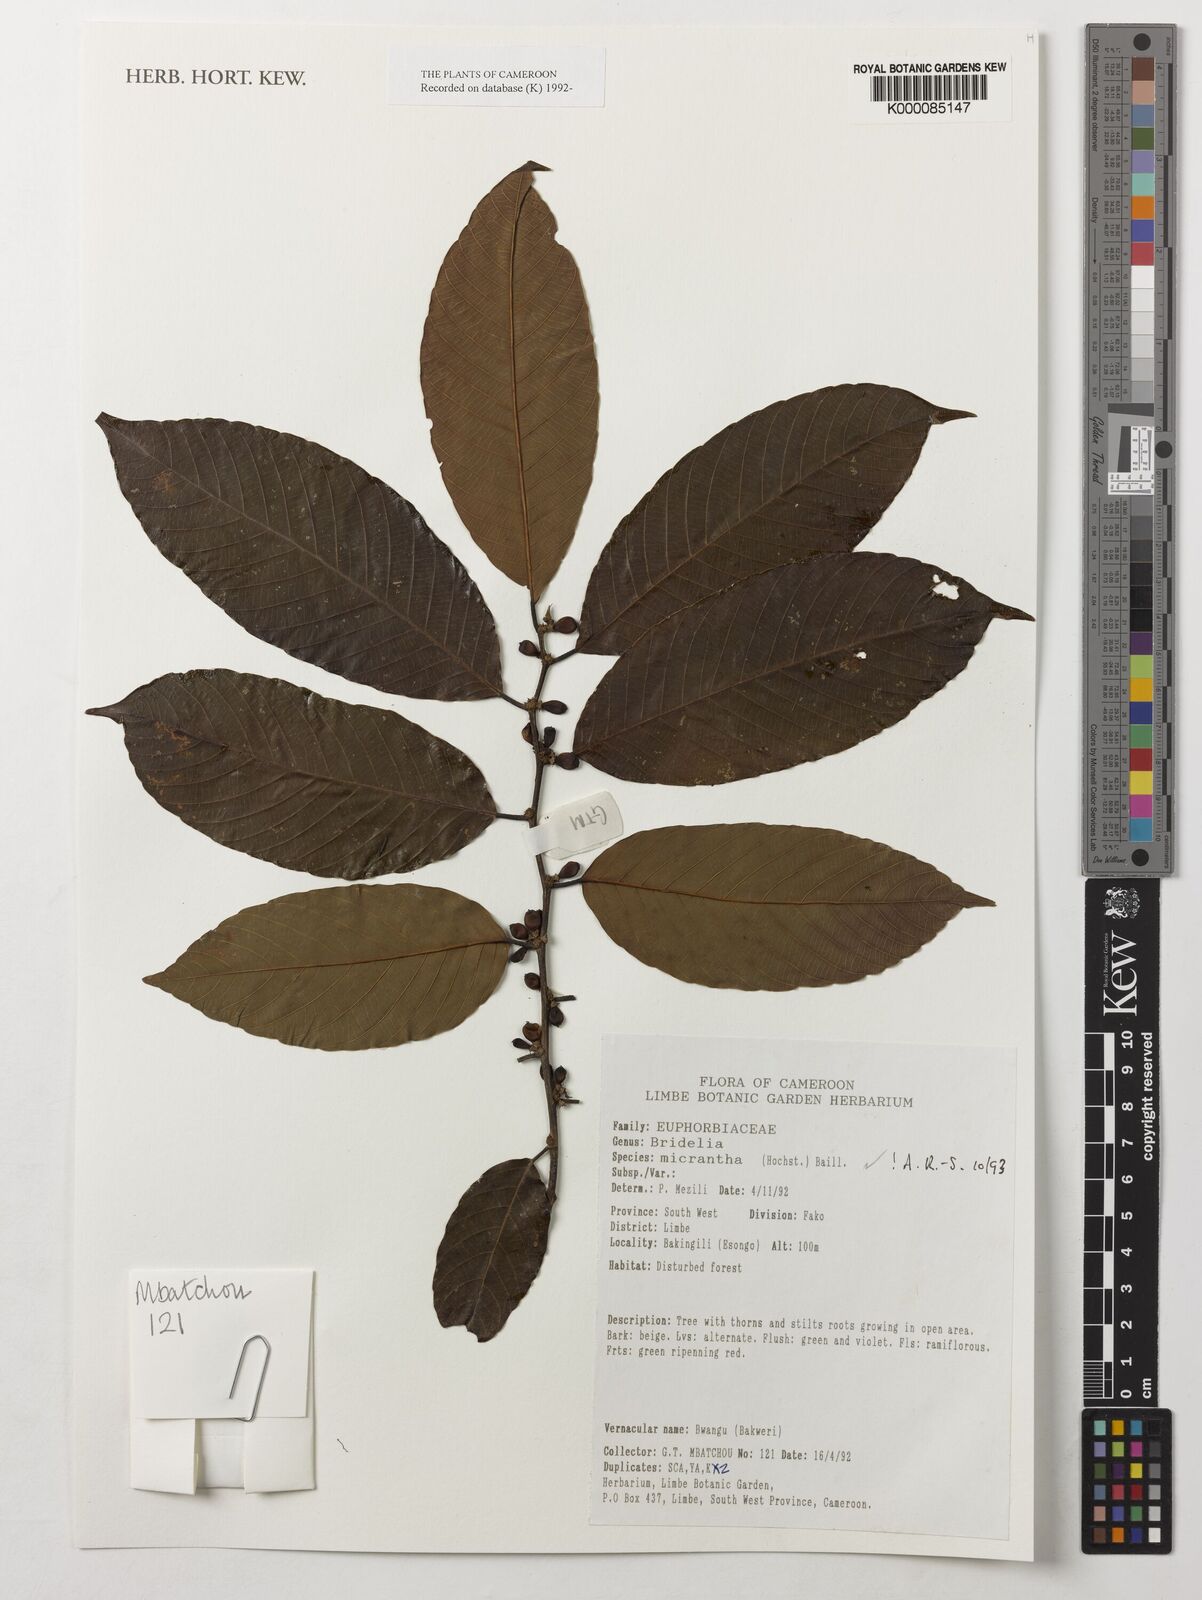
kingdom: Plantae
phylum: Tracheophyta
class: Magnoliopsida
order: Malpighiales
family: Phyllanthaceae
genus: Bridelia
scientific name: Bridelia micrantha
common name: Bridelia
